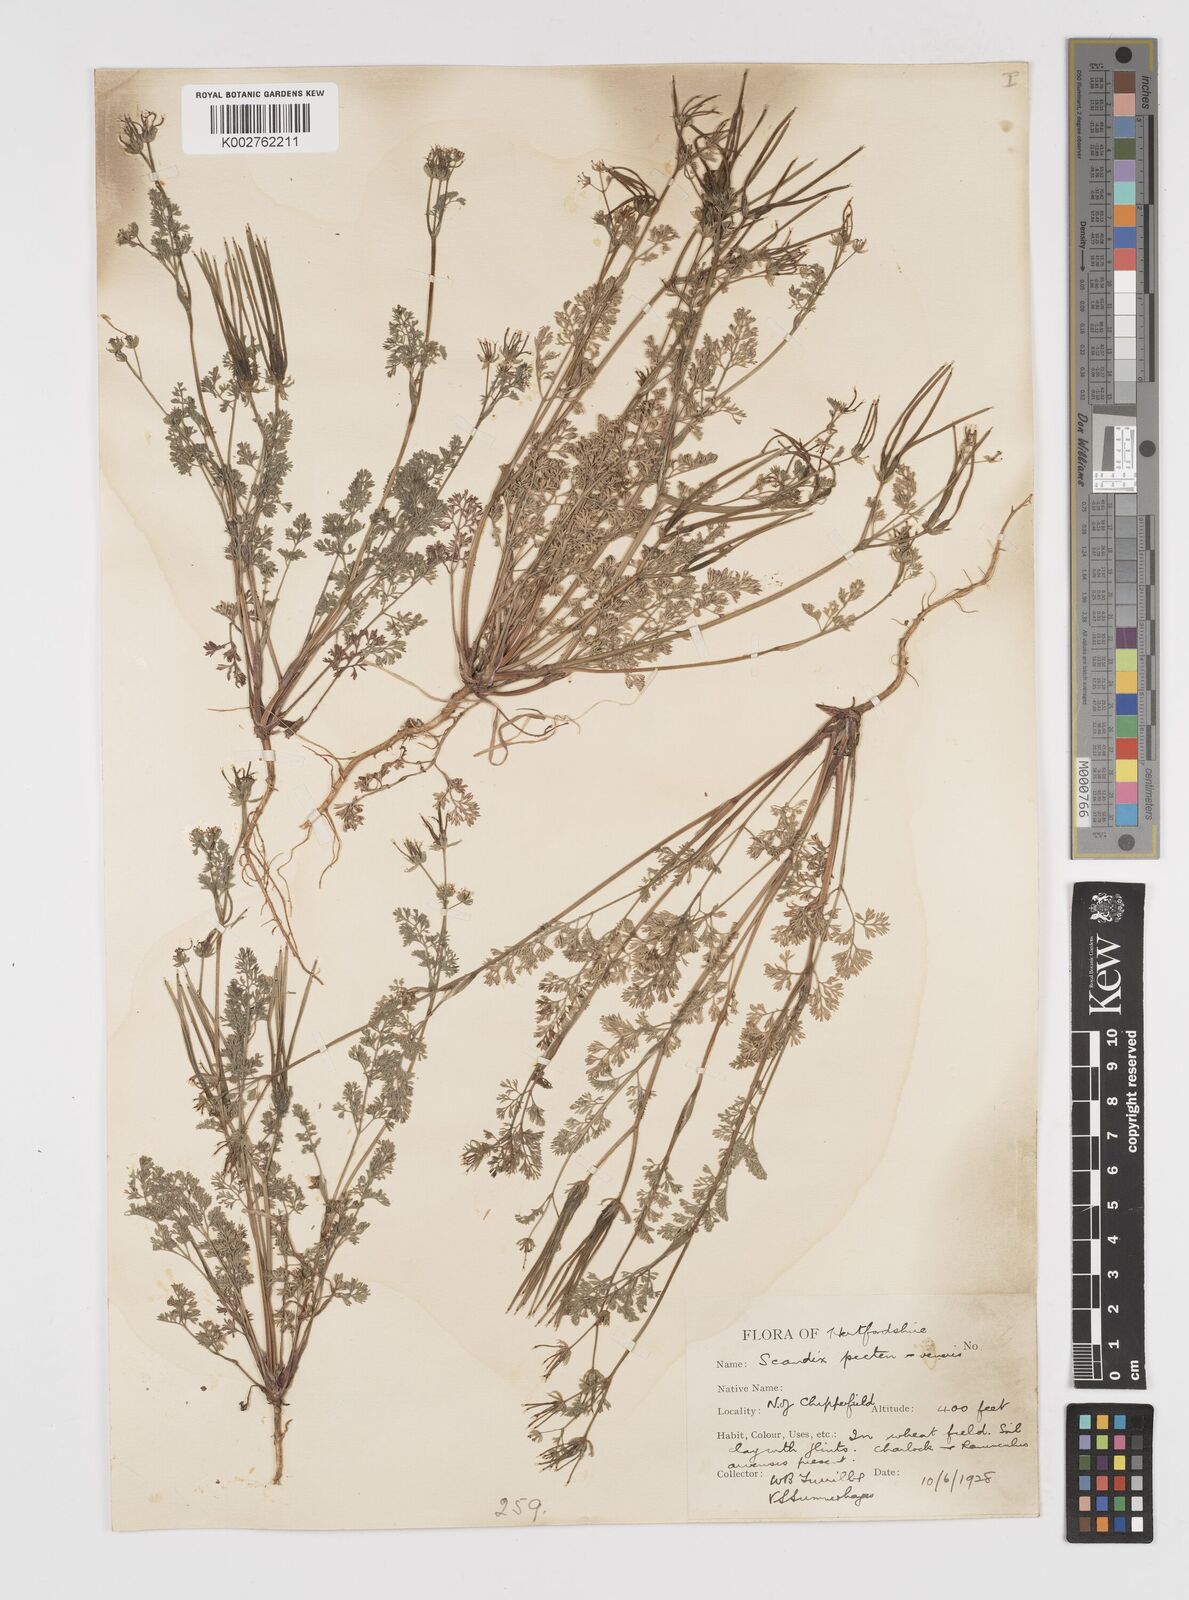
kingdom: Plantae
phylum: Tracheophyta
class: Magnoliopsida
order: Apiales
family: Apiaceae
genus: Scandix
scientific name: Scandix pecten-veneris
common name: Shepherd's-needle
